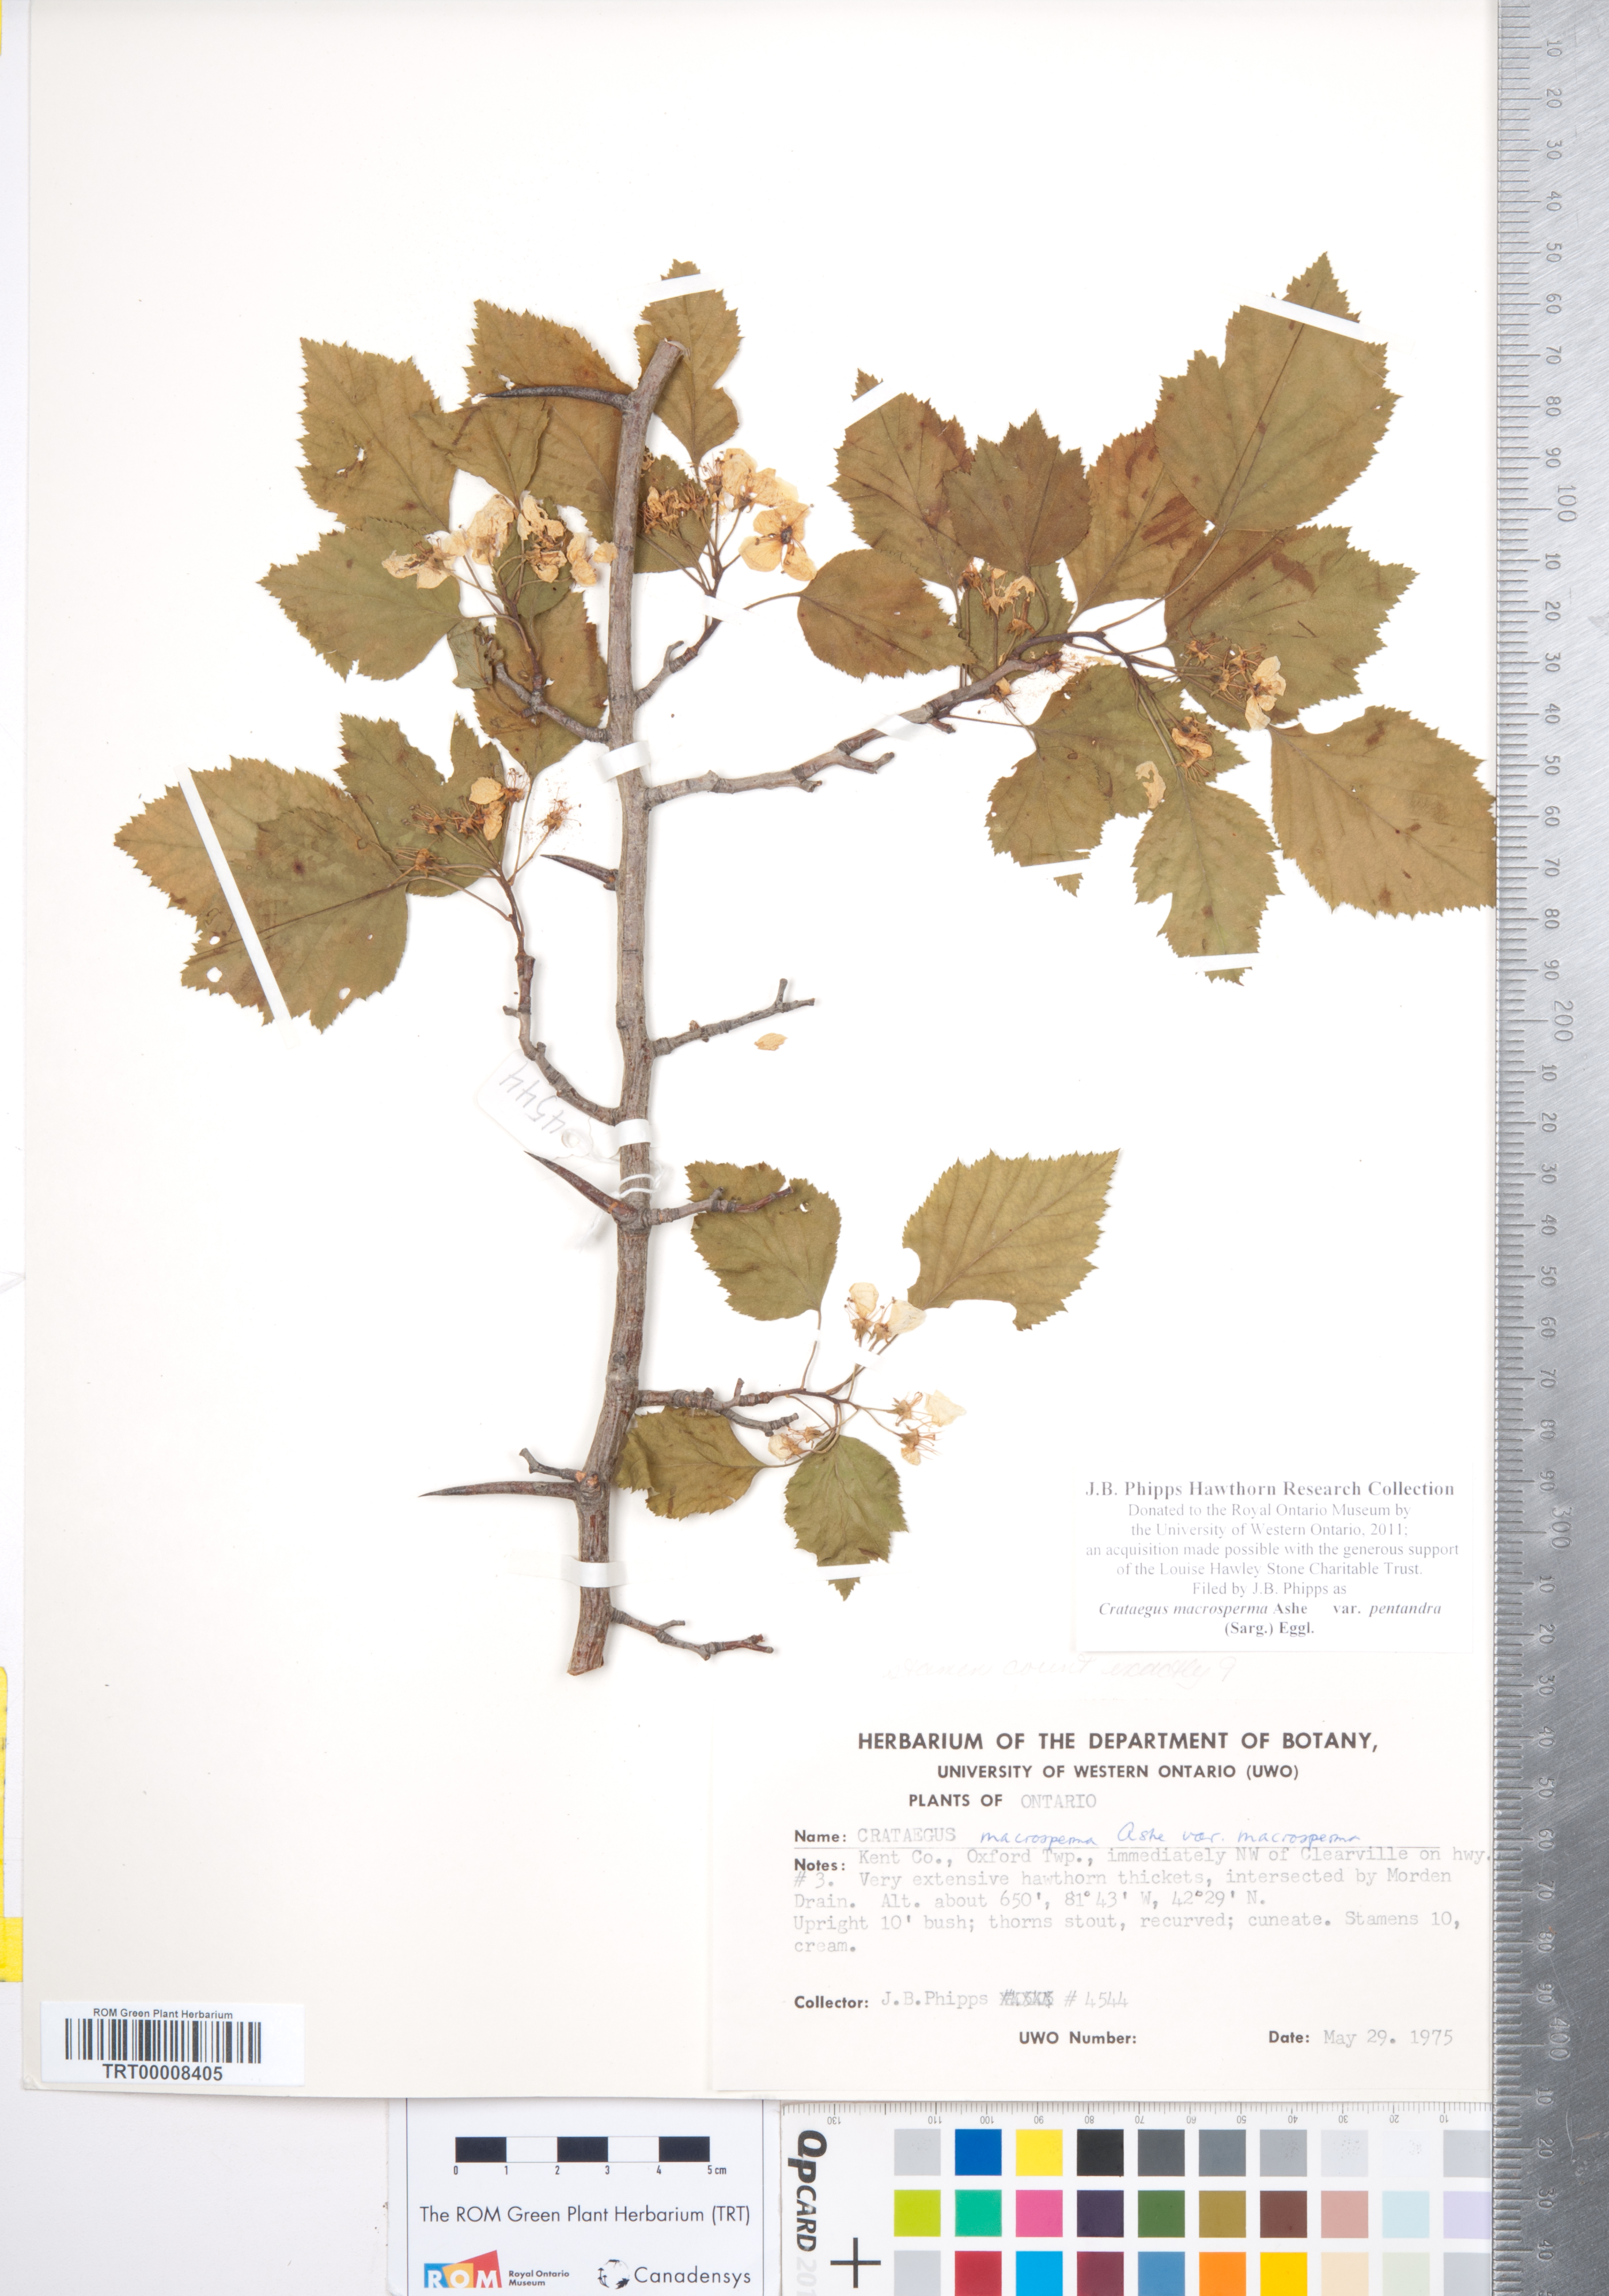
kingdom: Plantae
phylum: Tracheophyta
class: Magnoliopsida
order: Rosales
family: Rosaceae
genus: Crataegus
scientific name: Crataegus macrosperma
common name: Variable hawthorn
